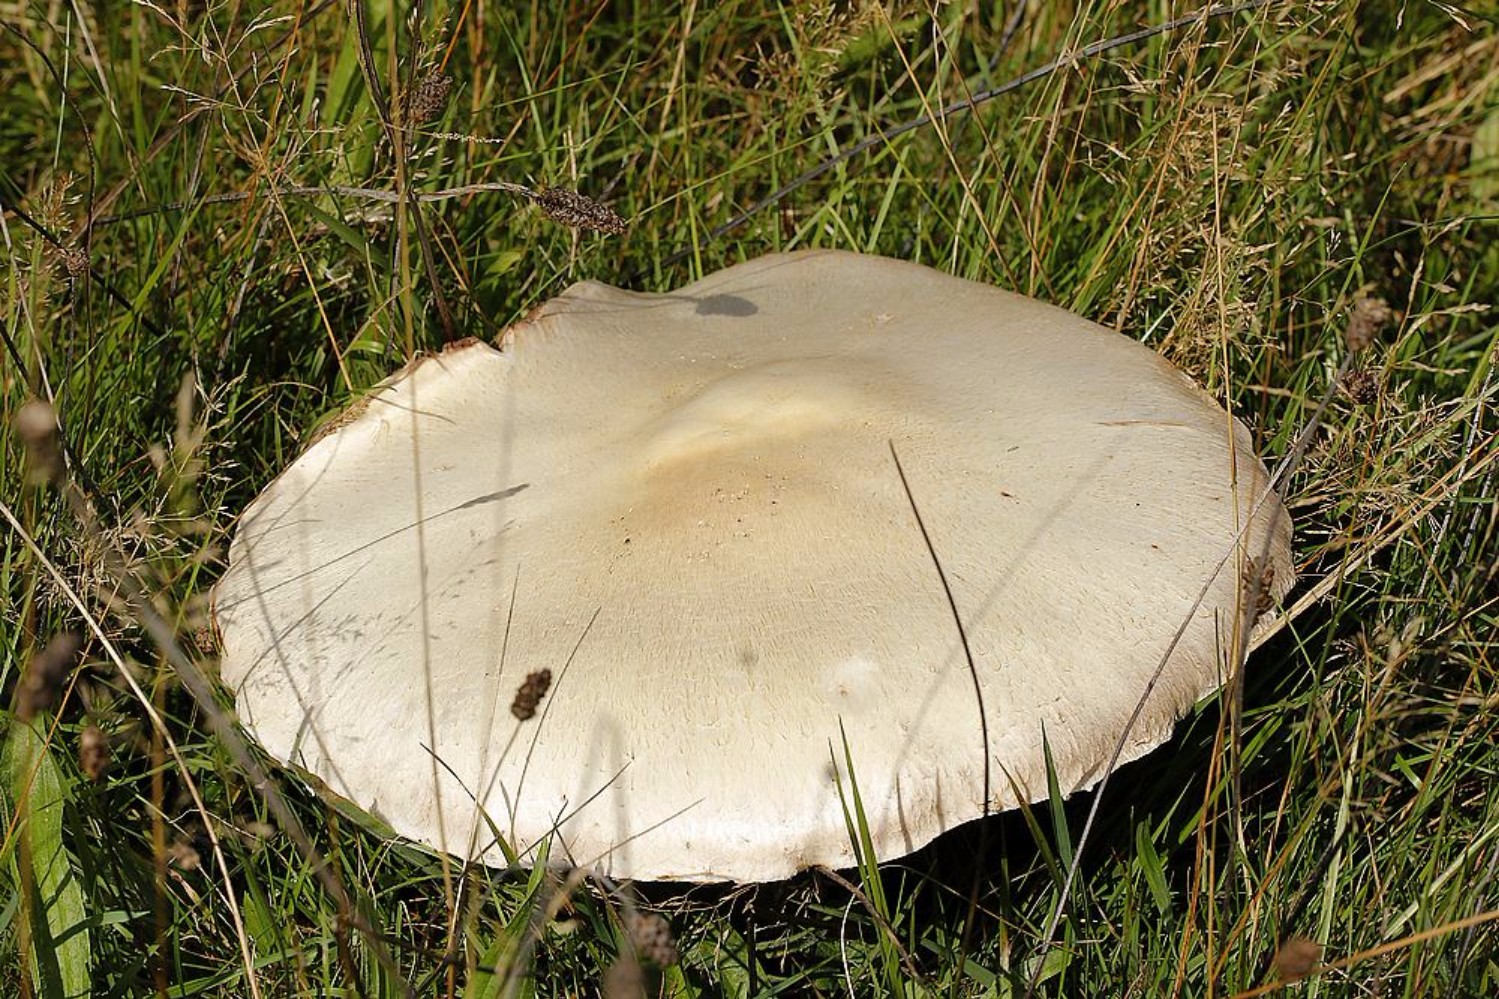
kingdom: Fungi
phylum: Basidiomycota
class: Agaricomycetes
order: Agaricales
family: Agaricaceae
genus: Agaricus
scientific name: Agaricus arvensis
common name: ager-champignon
